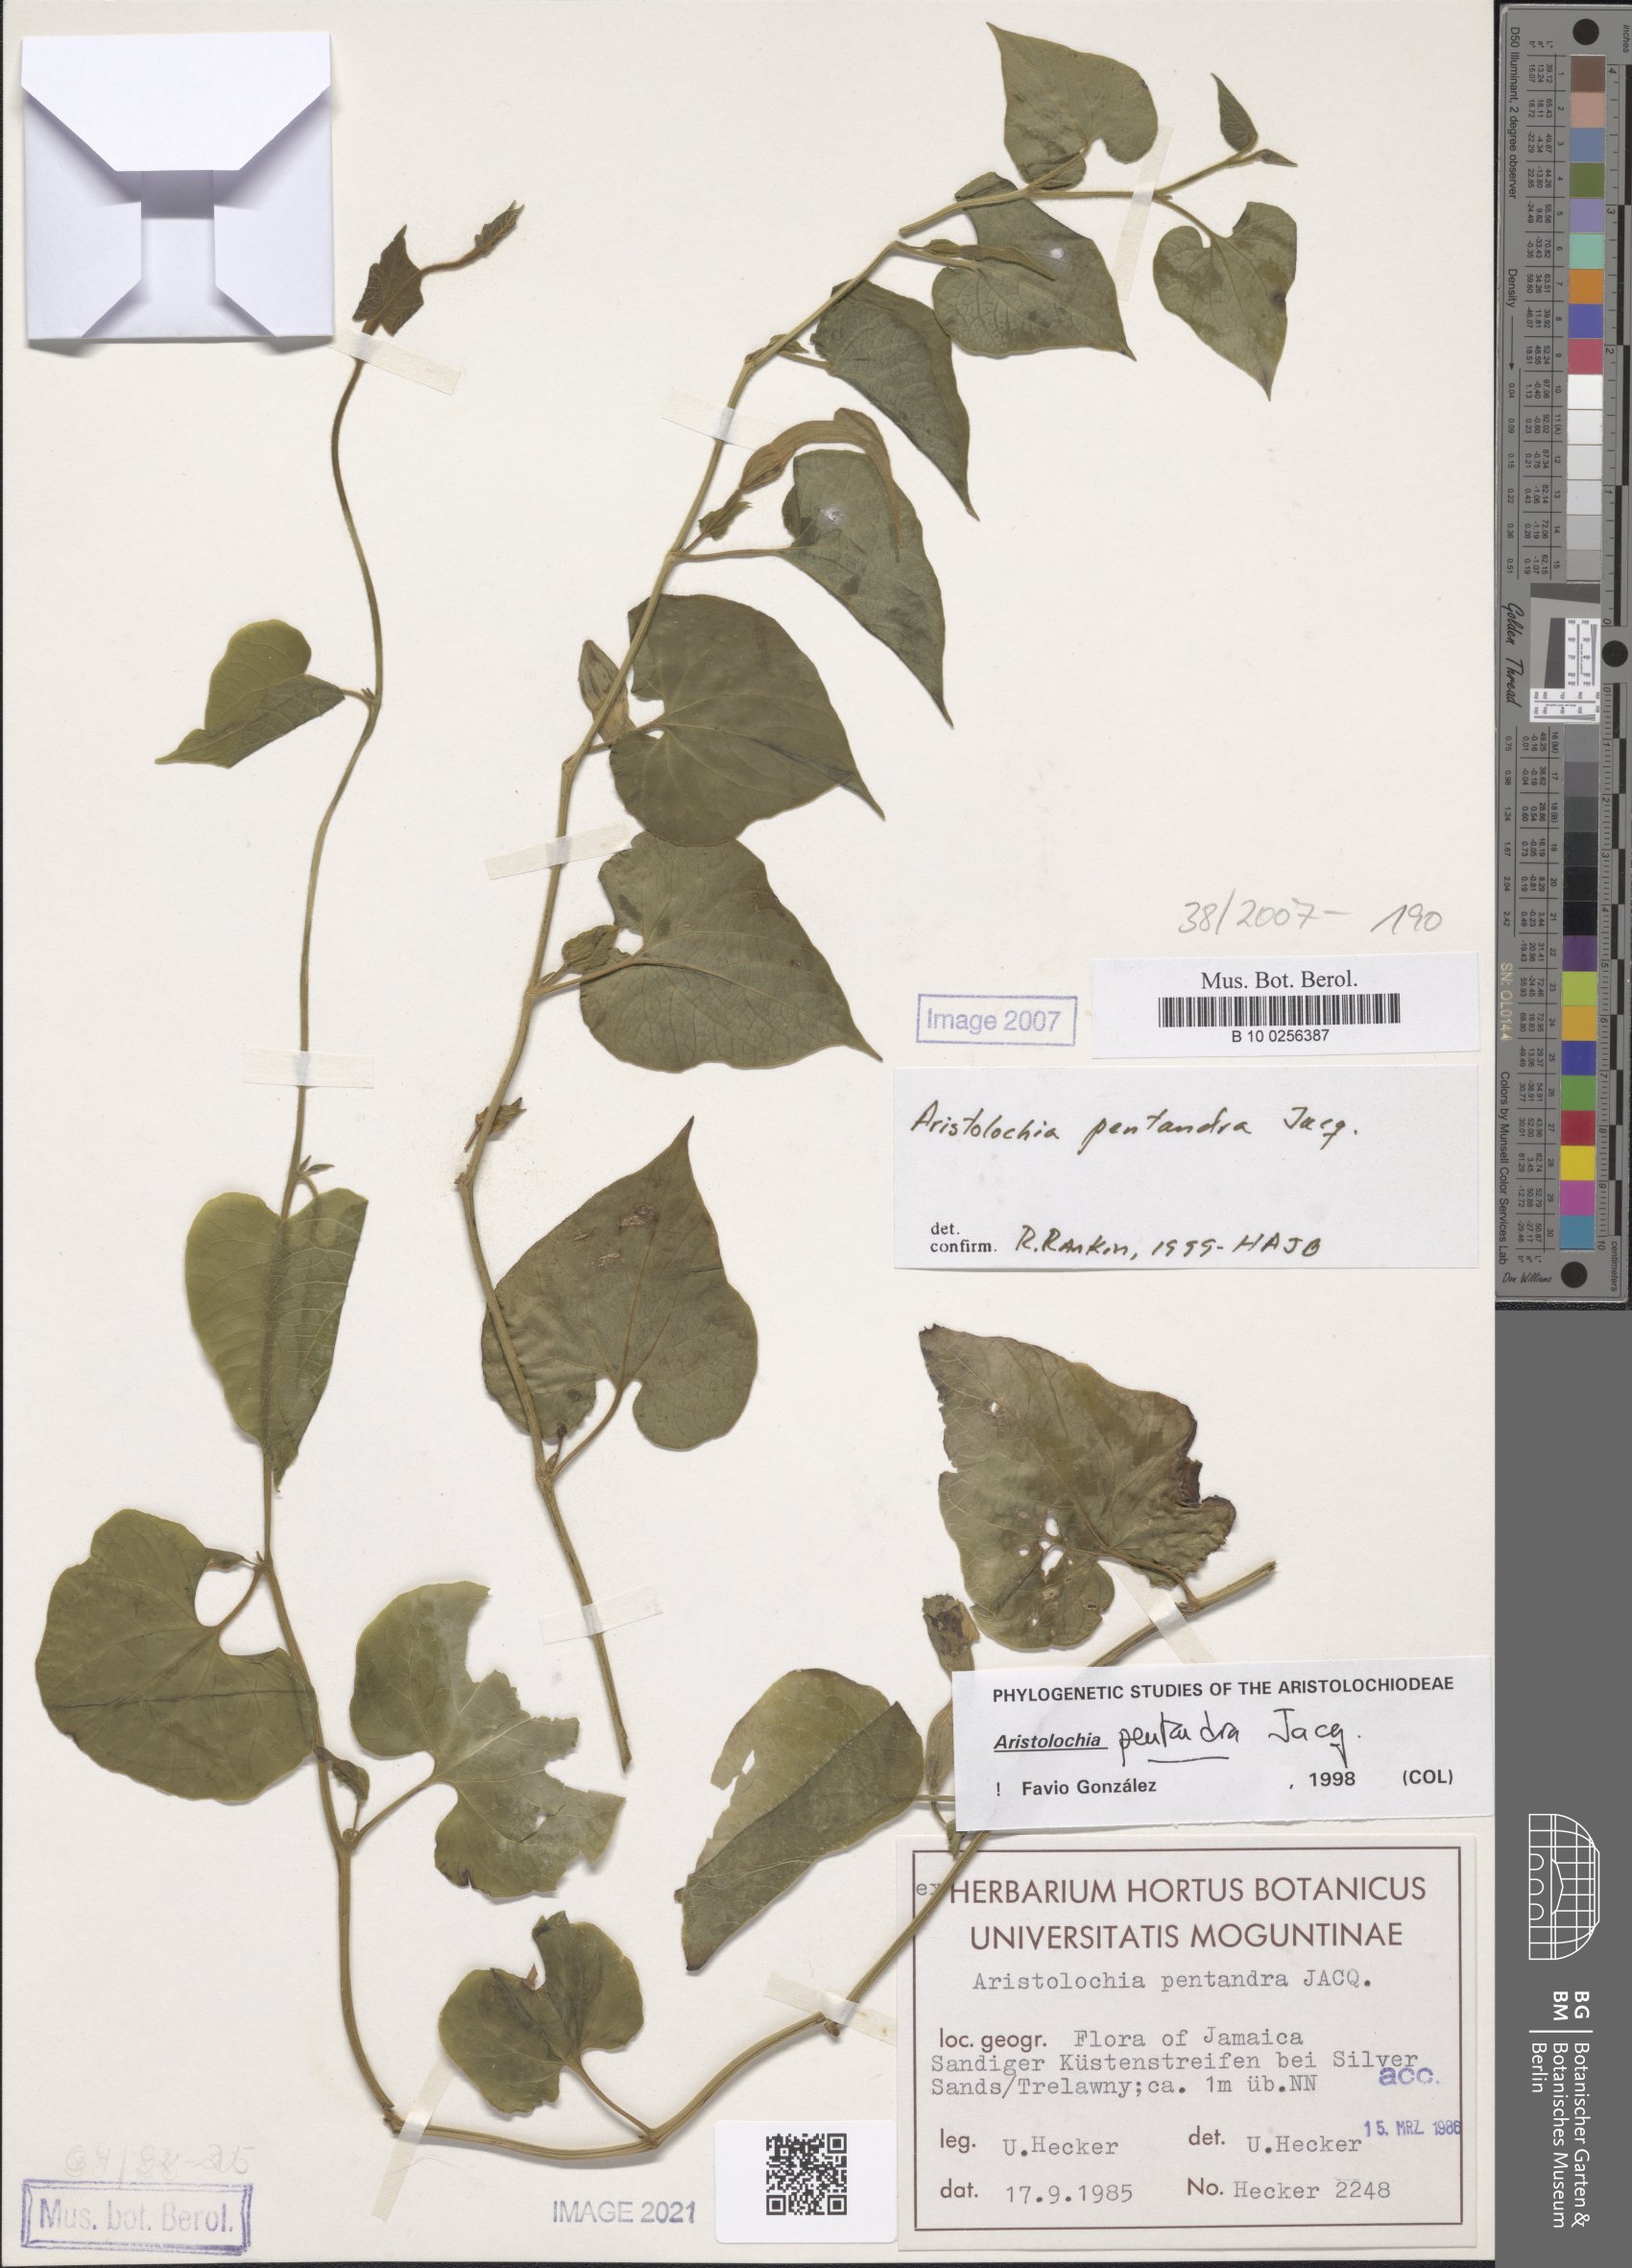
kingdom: Plantae
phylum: Tracheophyta
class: Magnoliopsida
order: Piperales
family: Aristolochiaceae
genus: Aristolochia
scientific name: Aristolochia
